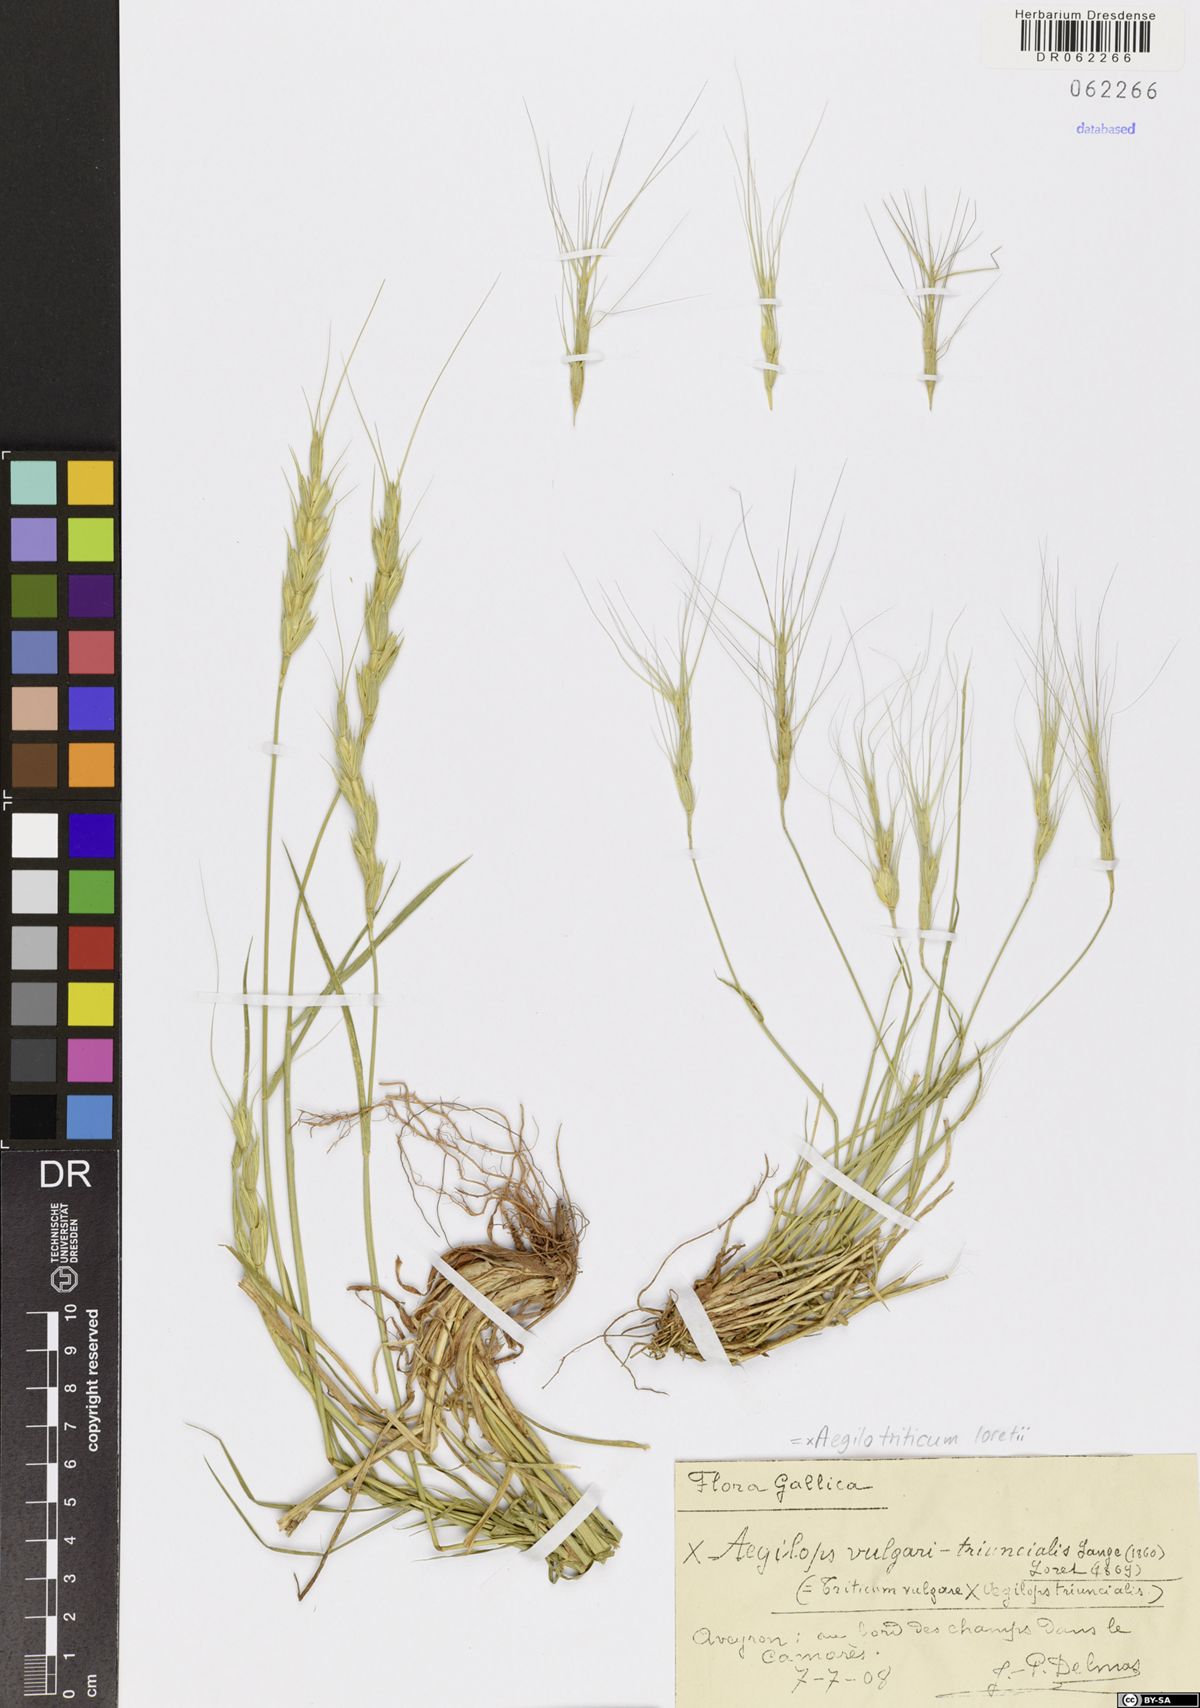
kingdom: Plantae
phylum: Tracheophyta
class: Liliopsida
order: Poales
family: Poaceae
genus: Aegilotriticum
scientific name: Aegilotriticum loretii
